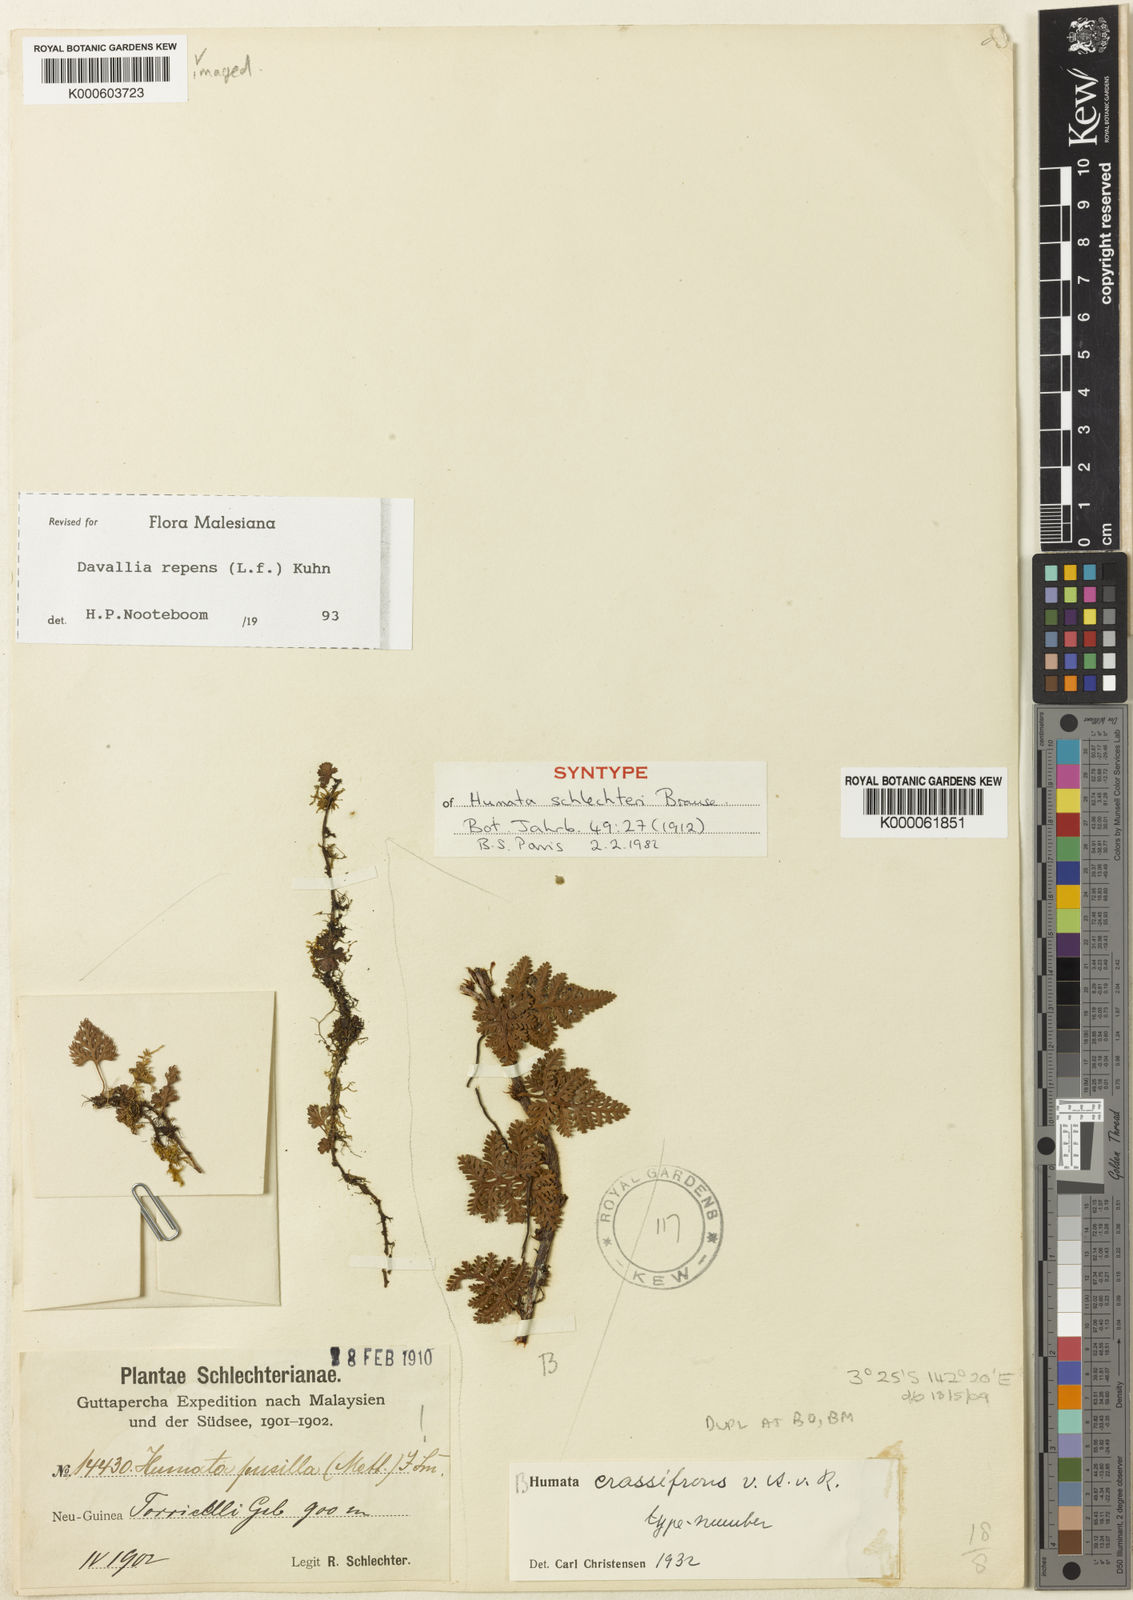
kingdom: Plantae
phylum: Tracheophyta
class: Polypodiopsida
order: Polypodiales
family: Davalliaceae
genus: Davallia
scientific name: Davallia repens
